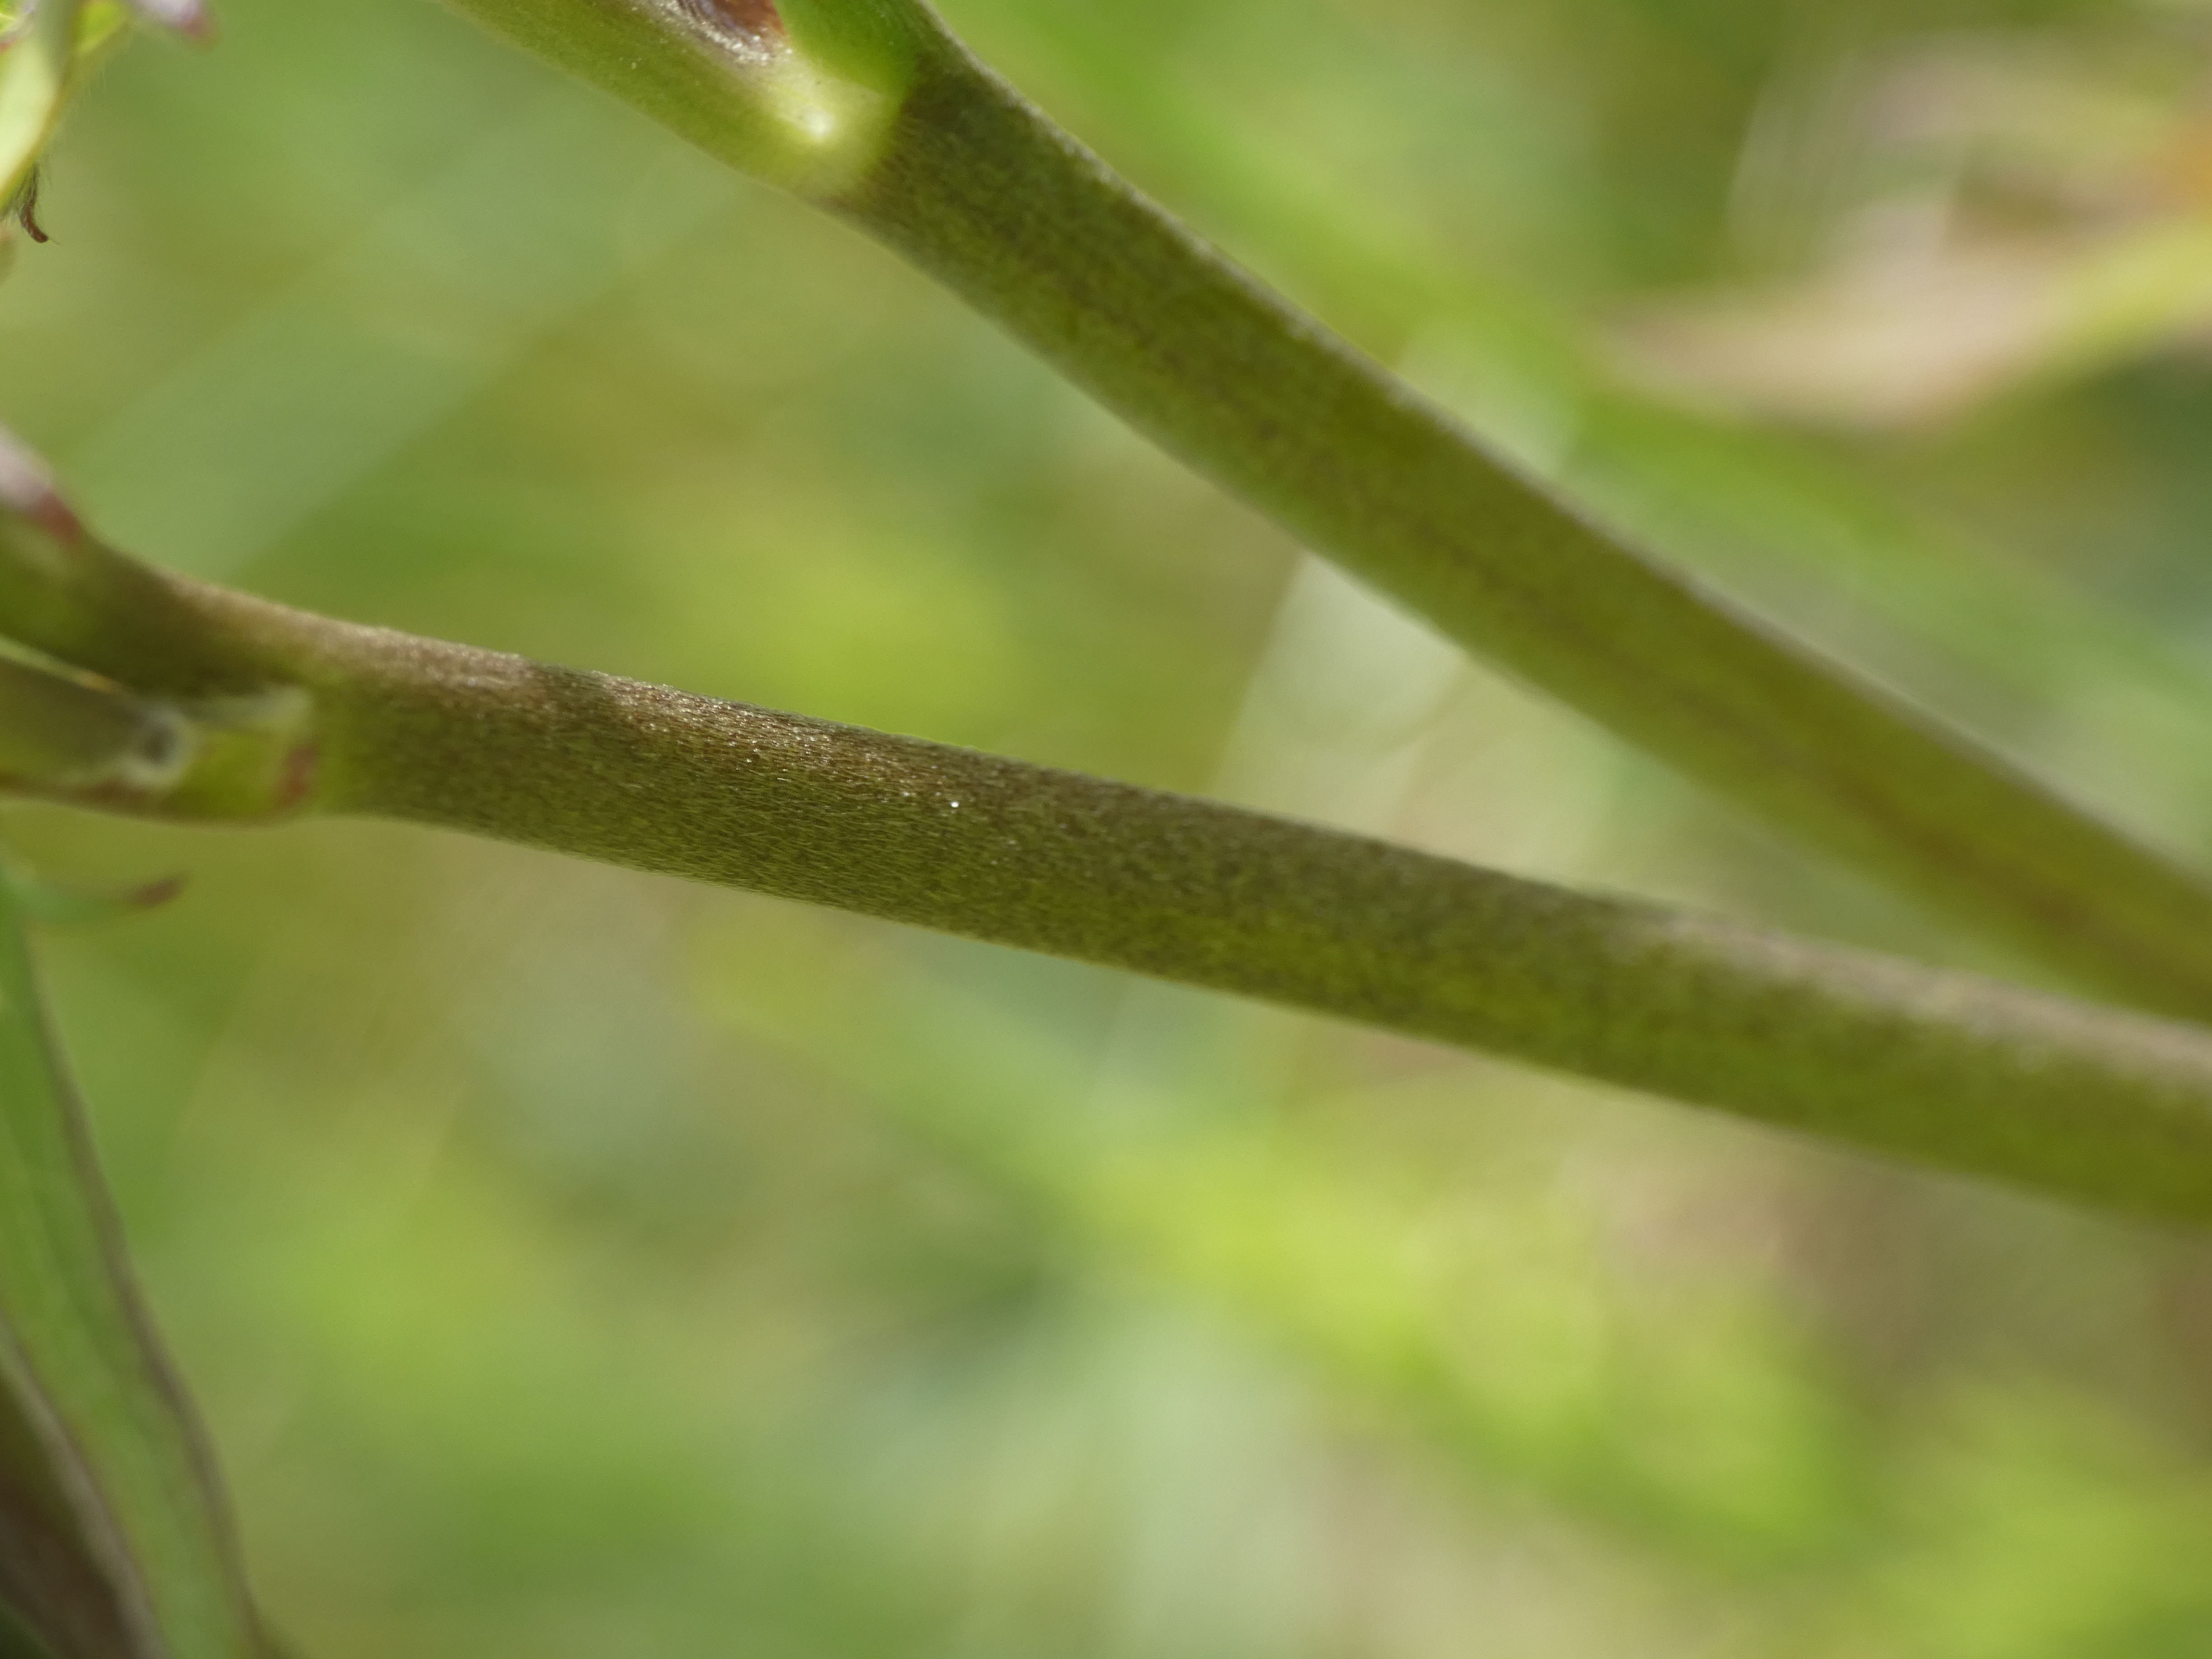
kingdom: Plantae
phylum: Tracheophyta
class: Magnoliopsida
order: Ranunculales
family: Ranunculaceae
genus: Ranunculus
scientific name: Ranunculus acris
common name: Bidende ranunkel
